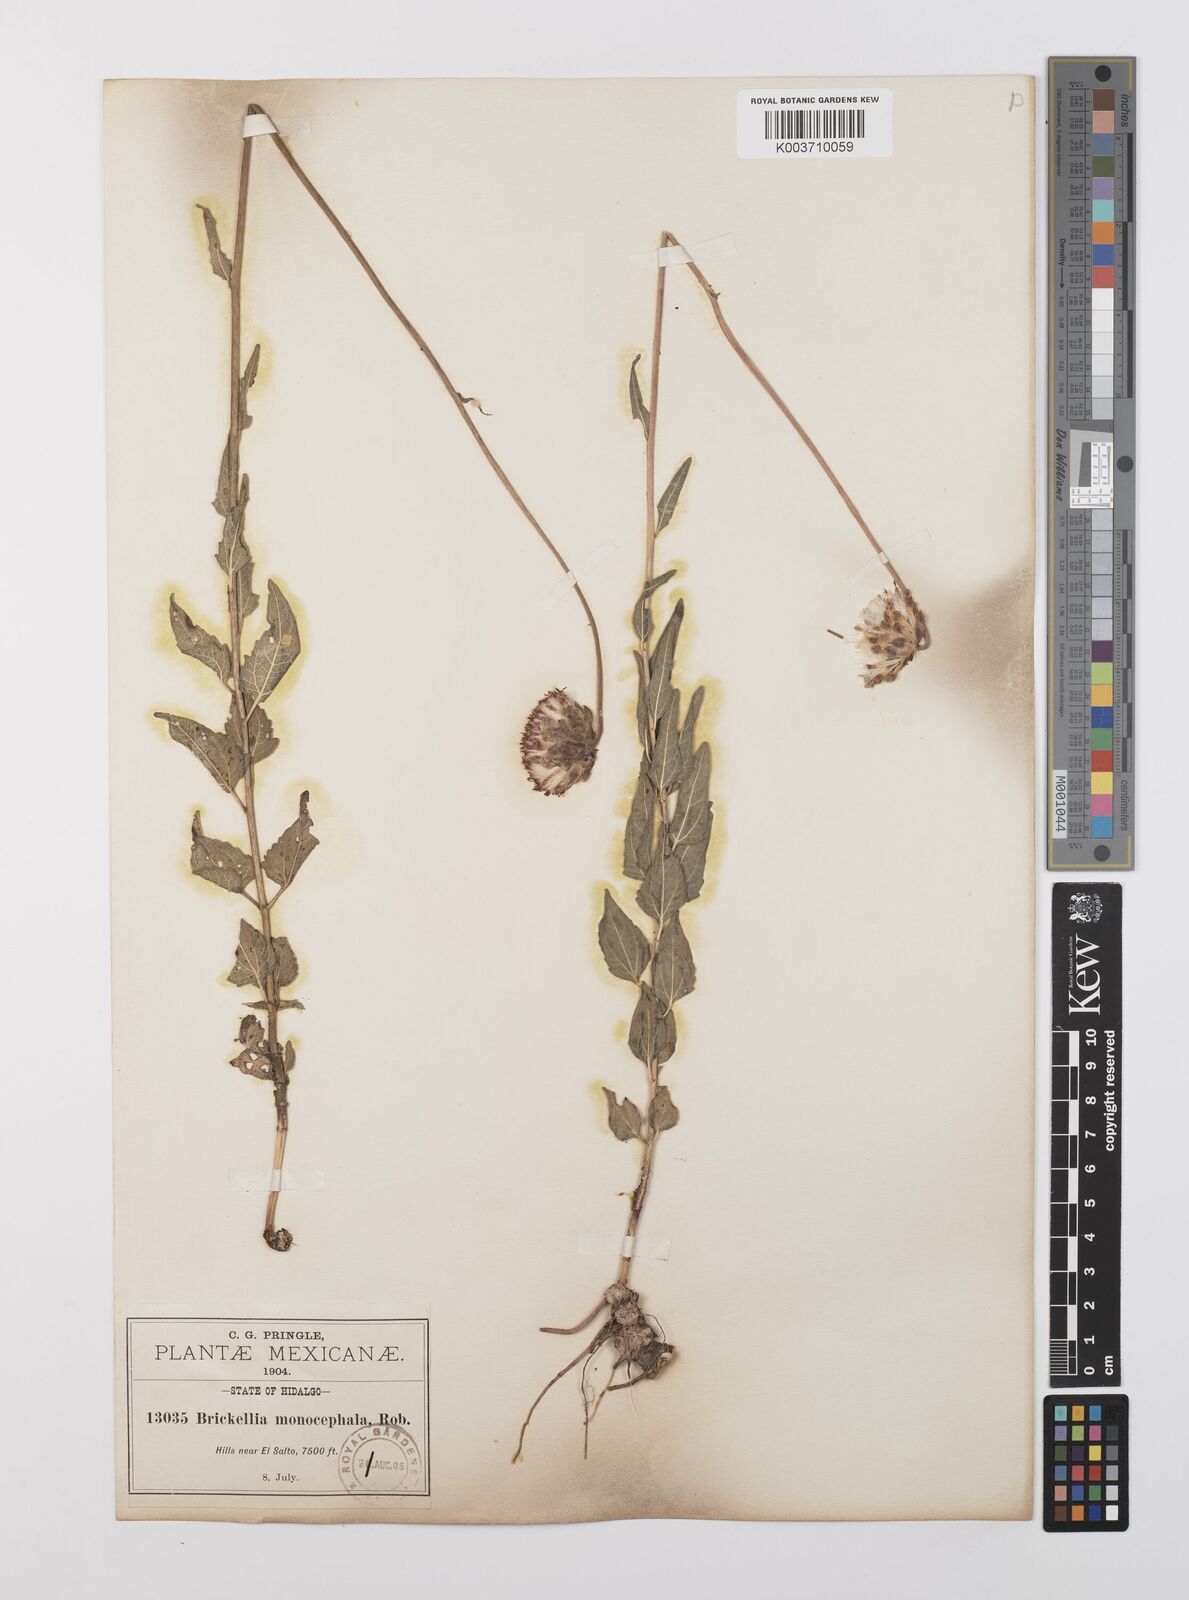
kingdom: Plantae
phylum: Tracheophyta
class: Magnoliopsida
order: Asterales
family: Asteraceae
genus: Brickellia
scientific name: Brickellia monocephala
